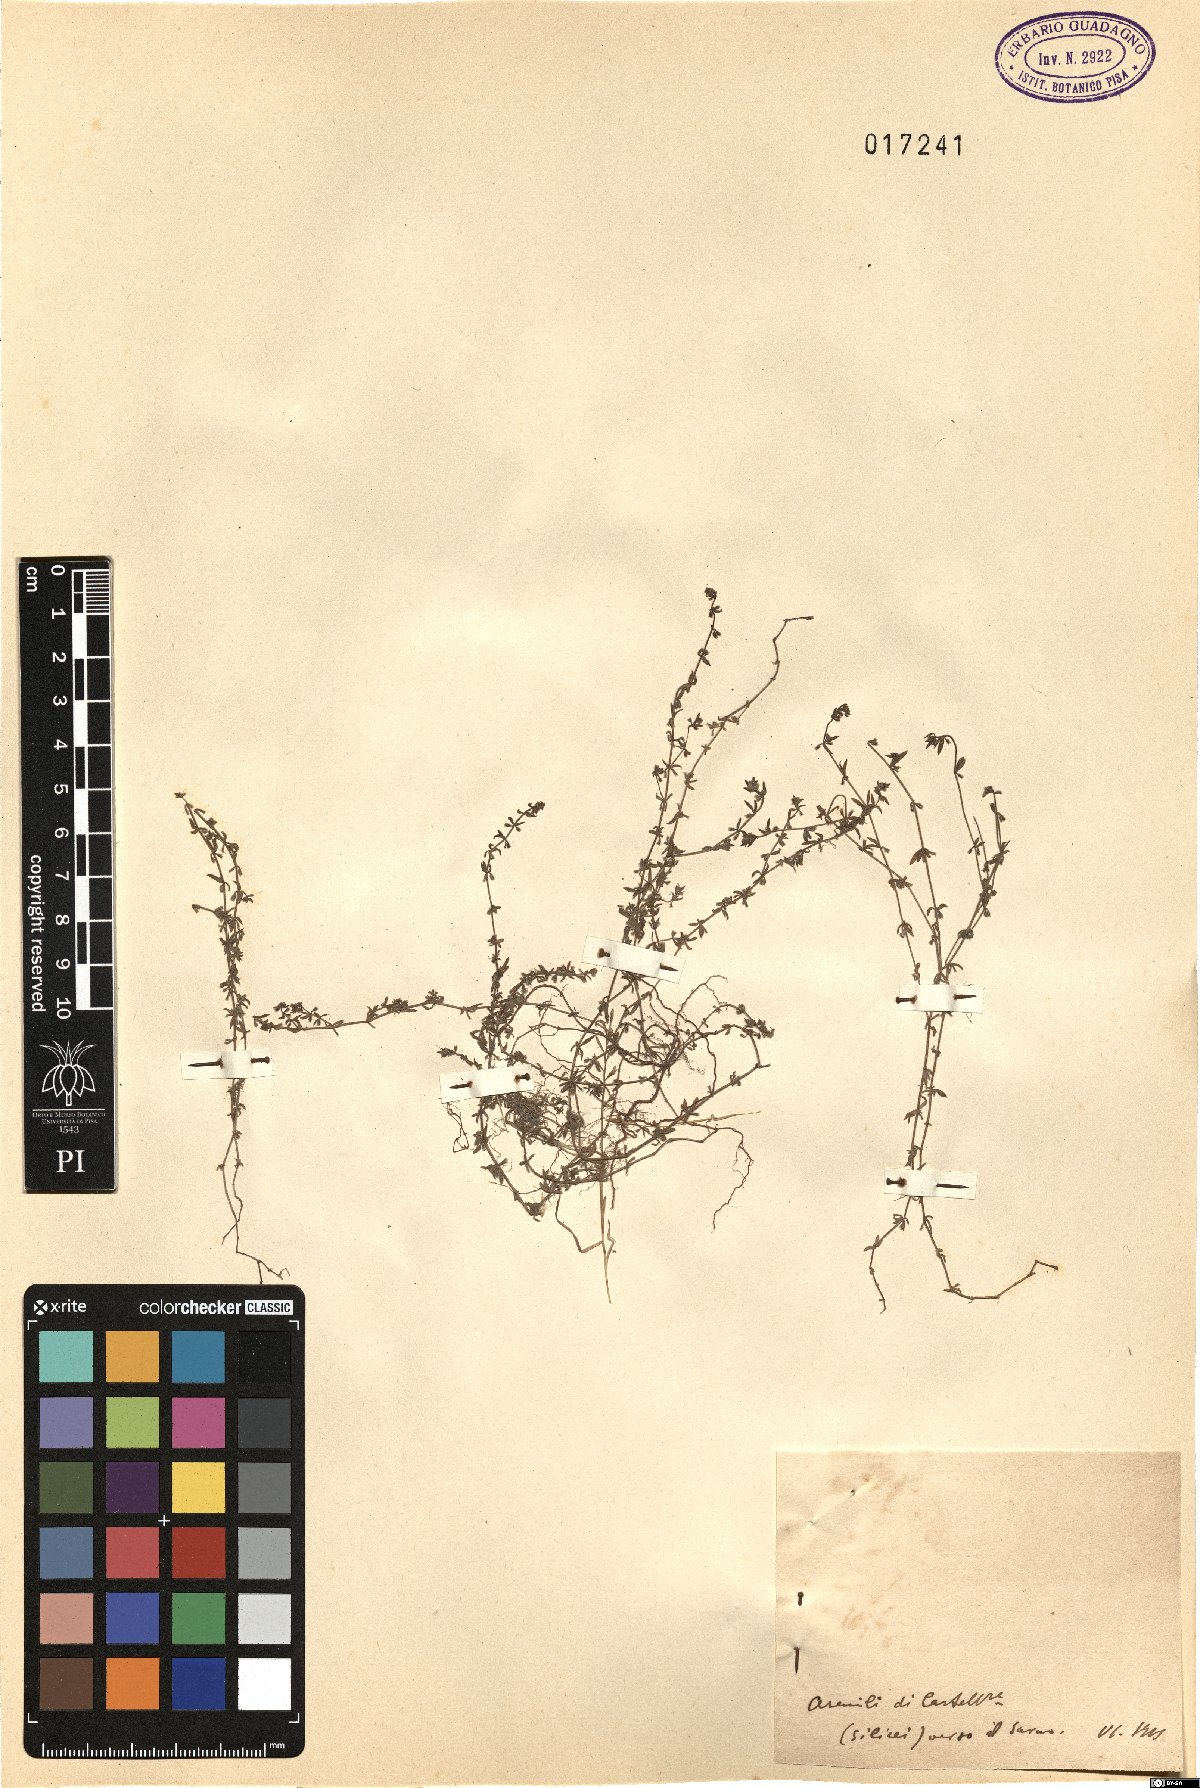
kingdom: Plantae
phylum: Tracheophyta
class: Magnoliopsida
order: Gentianales
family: Rubiaceae
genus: Galium
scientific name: Galium
